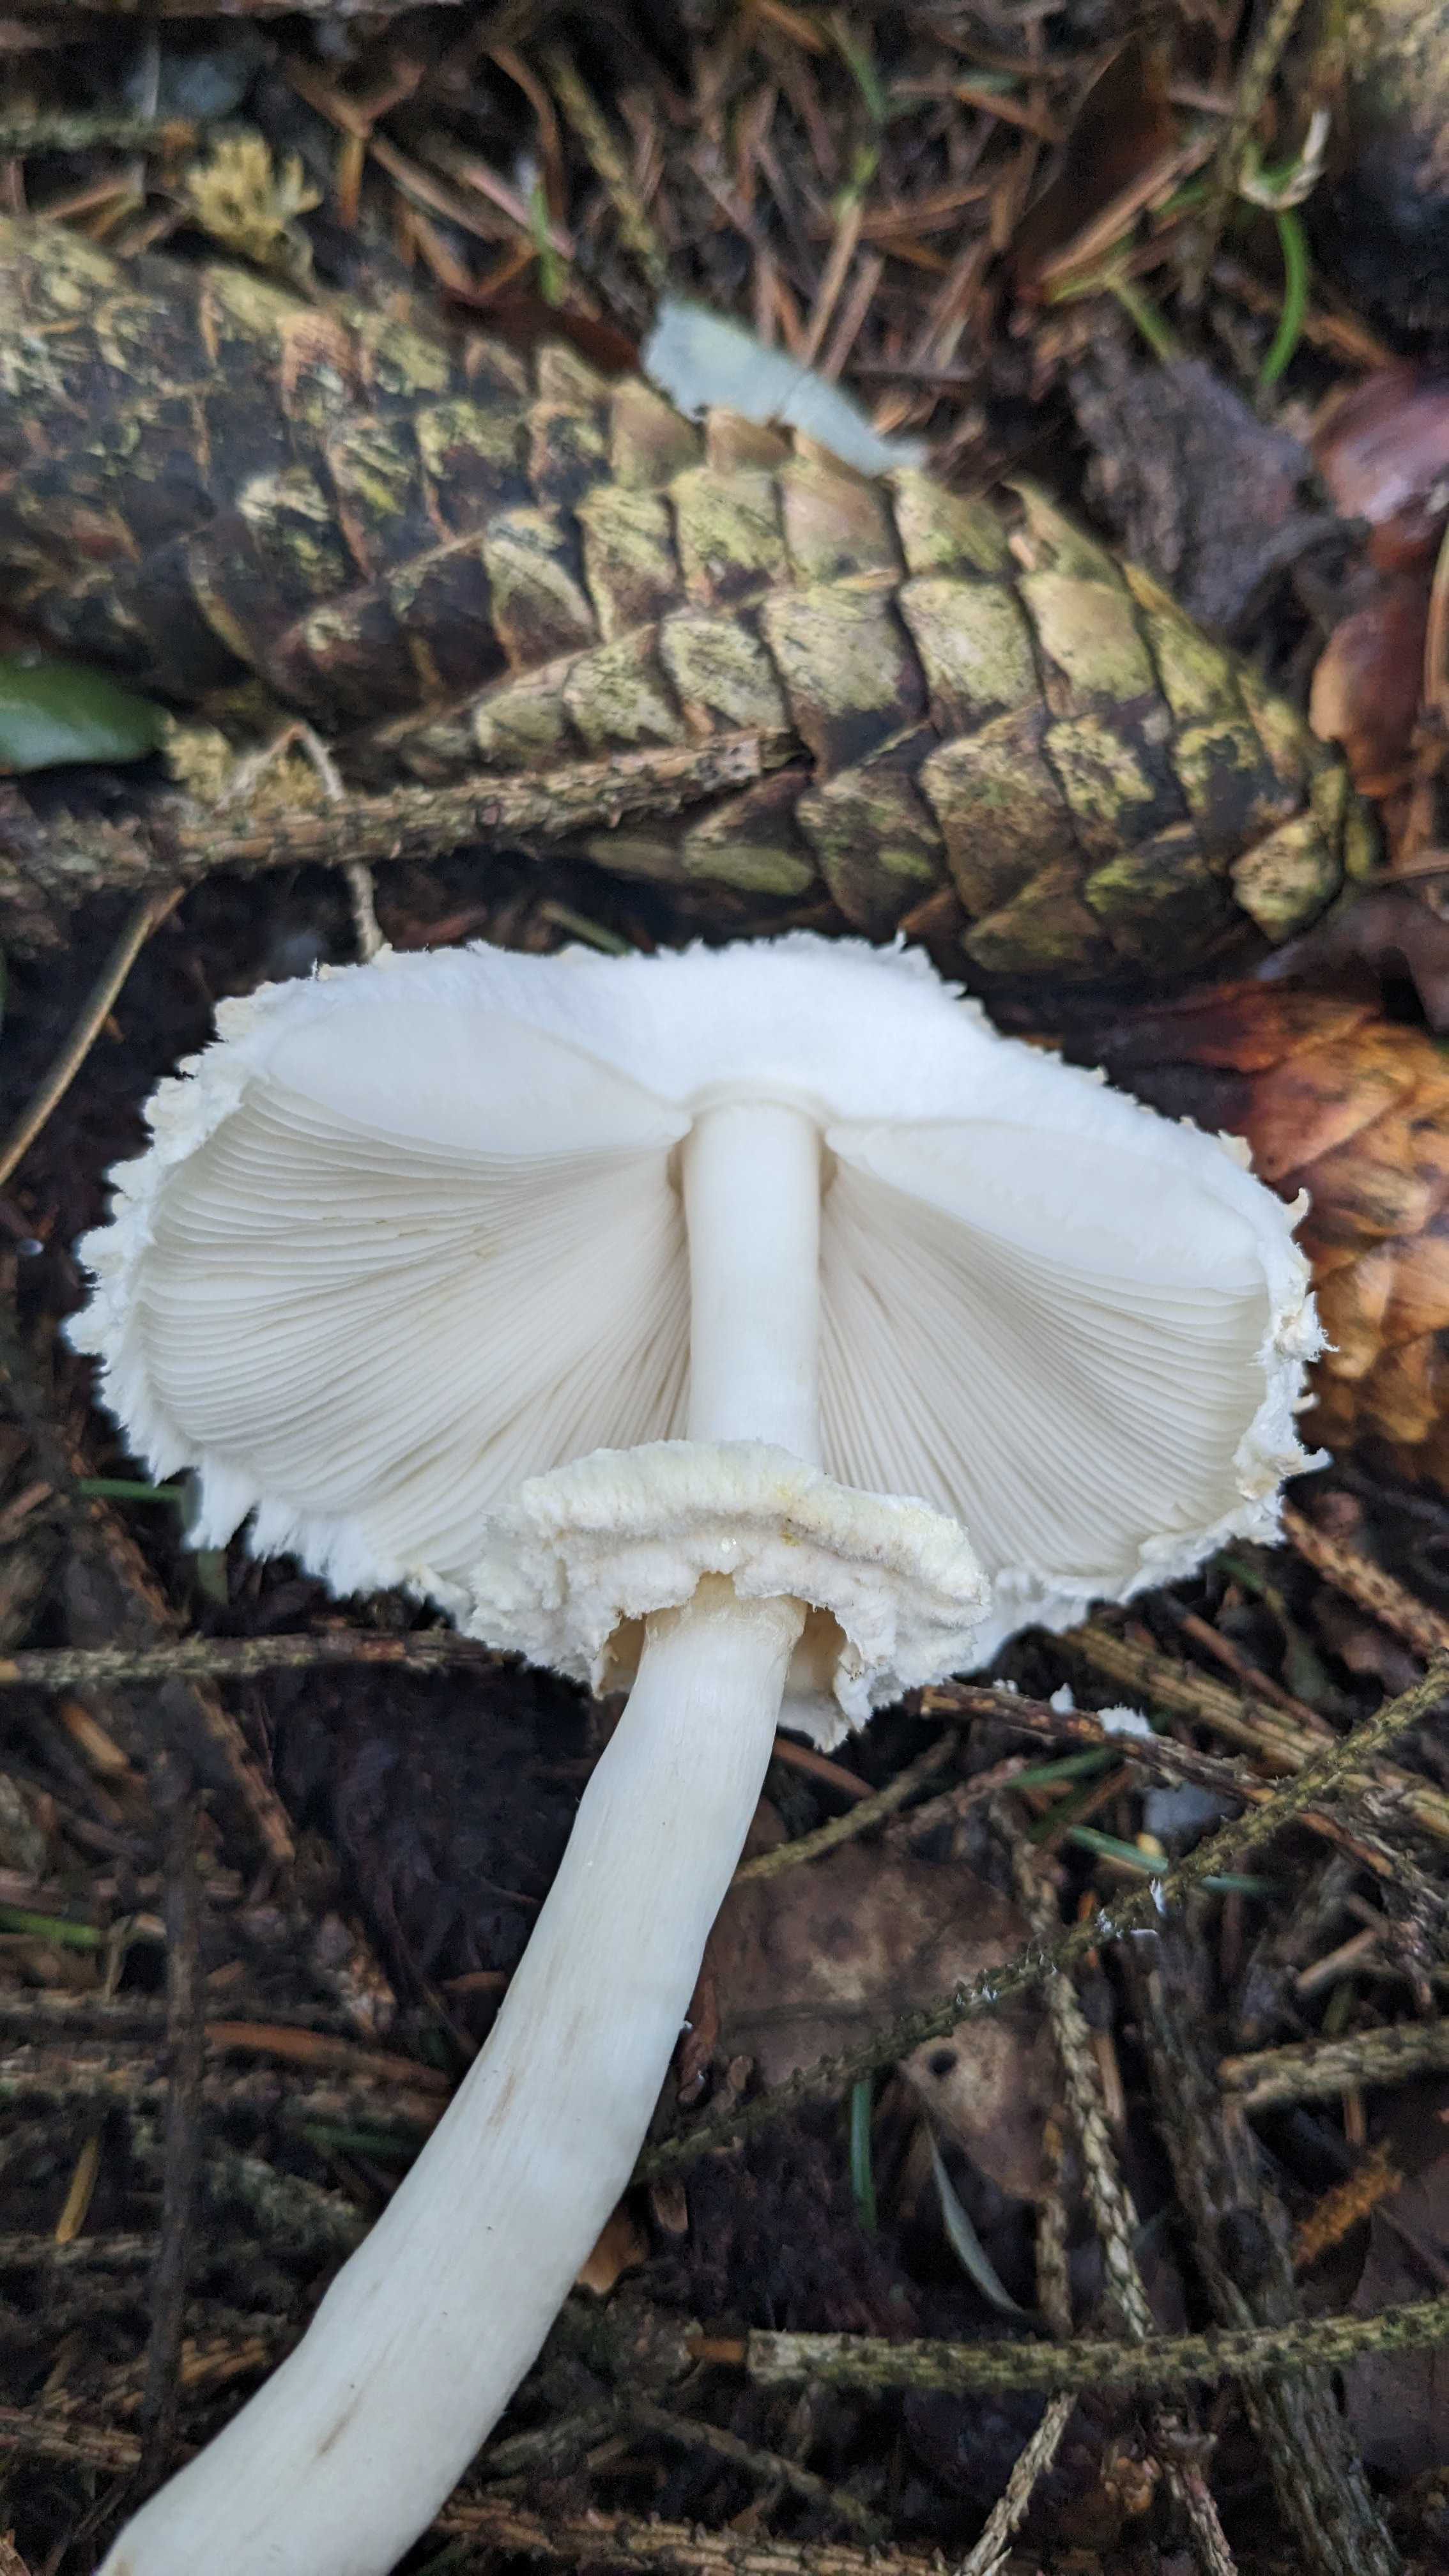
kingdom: Fungi
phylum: Basidiomycota
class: Agaricomycetes
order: Agaricales
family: Agaricaceae
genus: Leucoagaricus
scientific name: Leucoagaricus nympharum
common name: gran-silkehat
